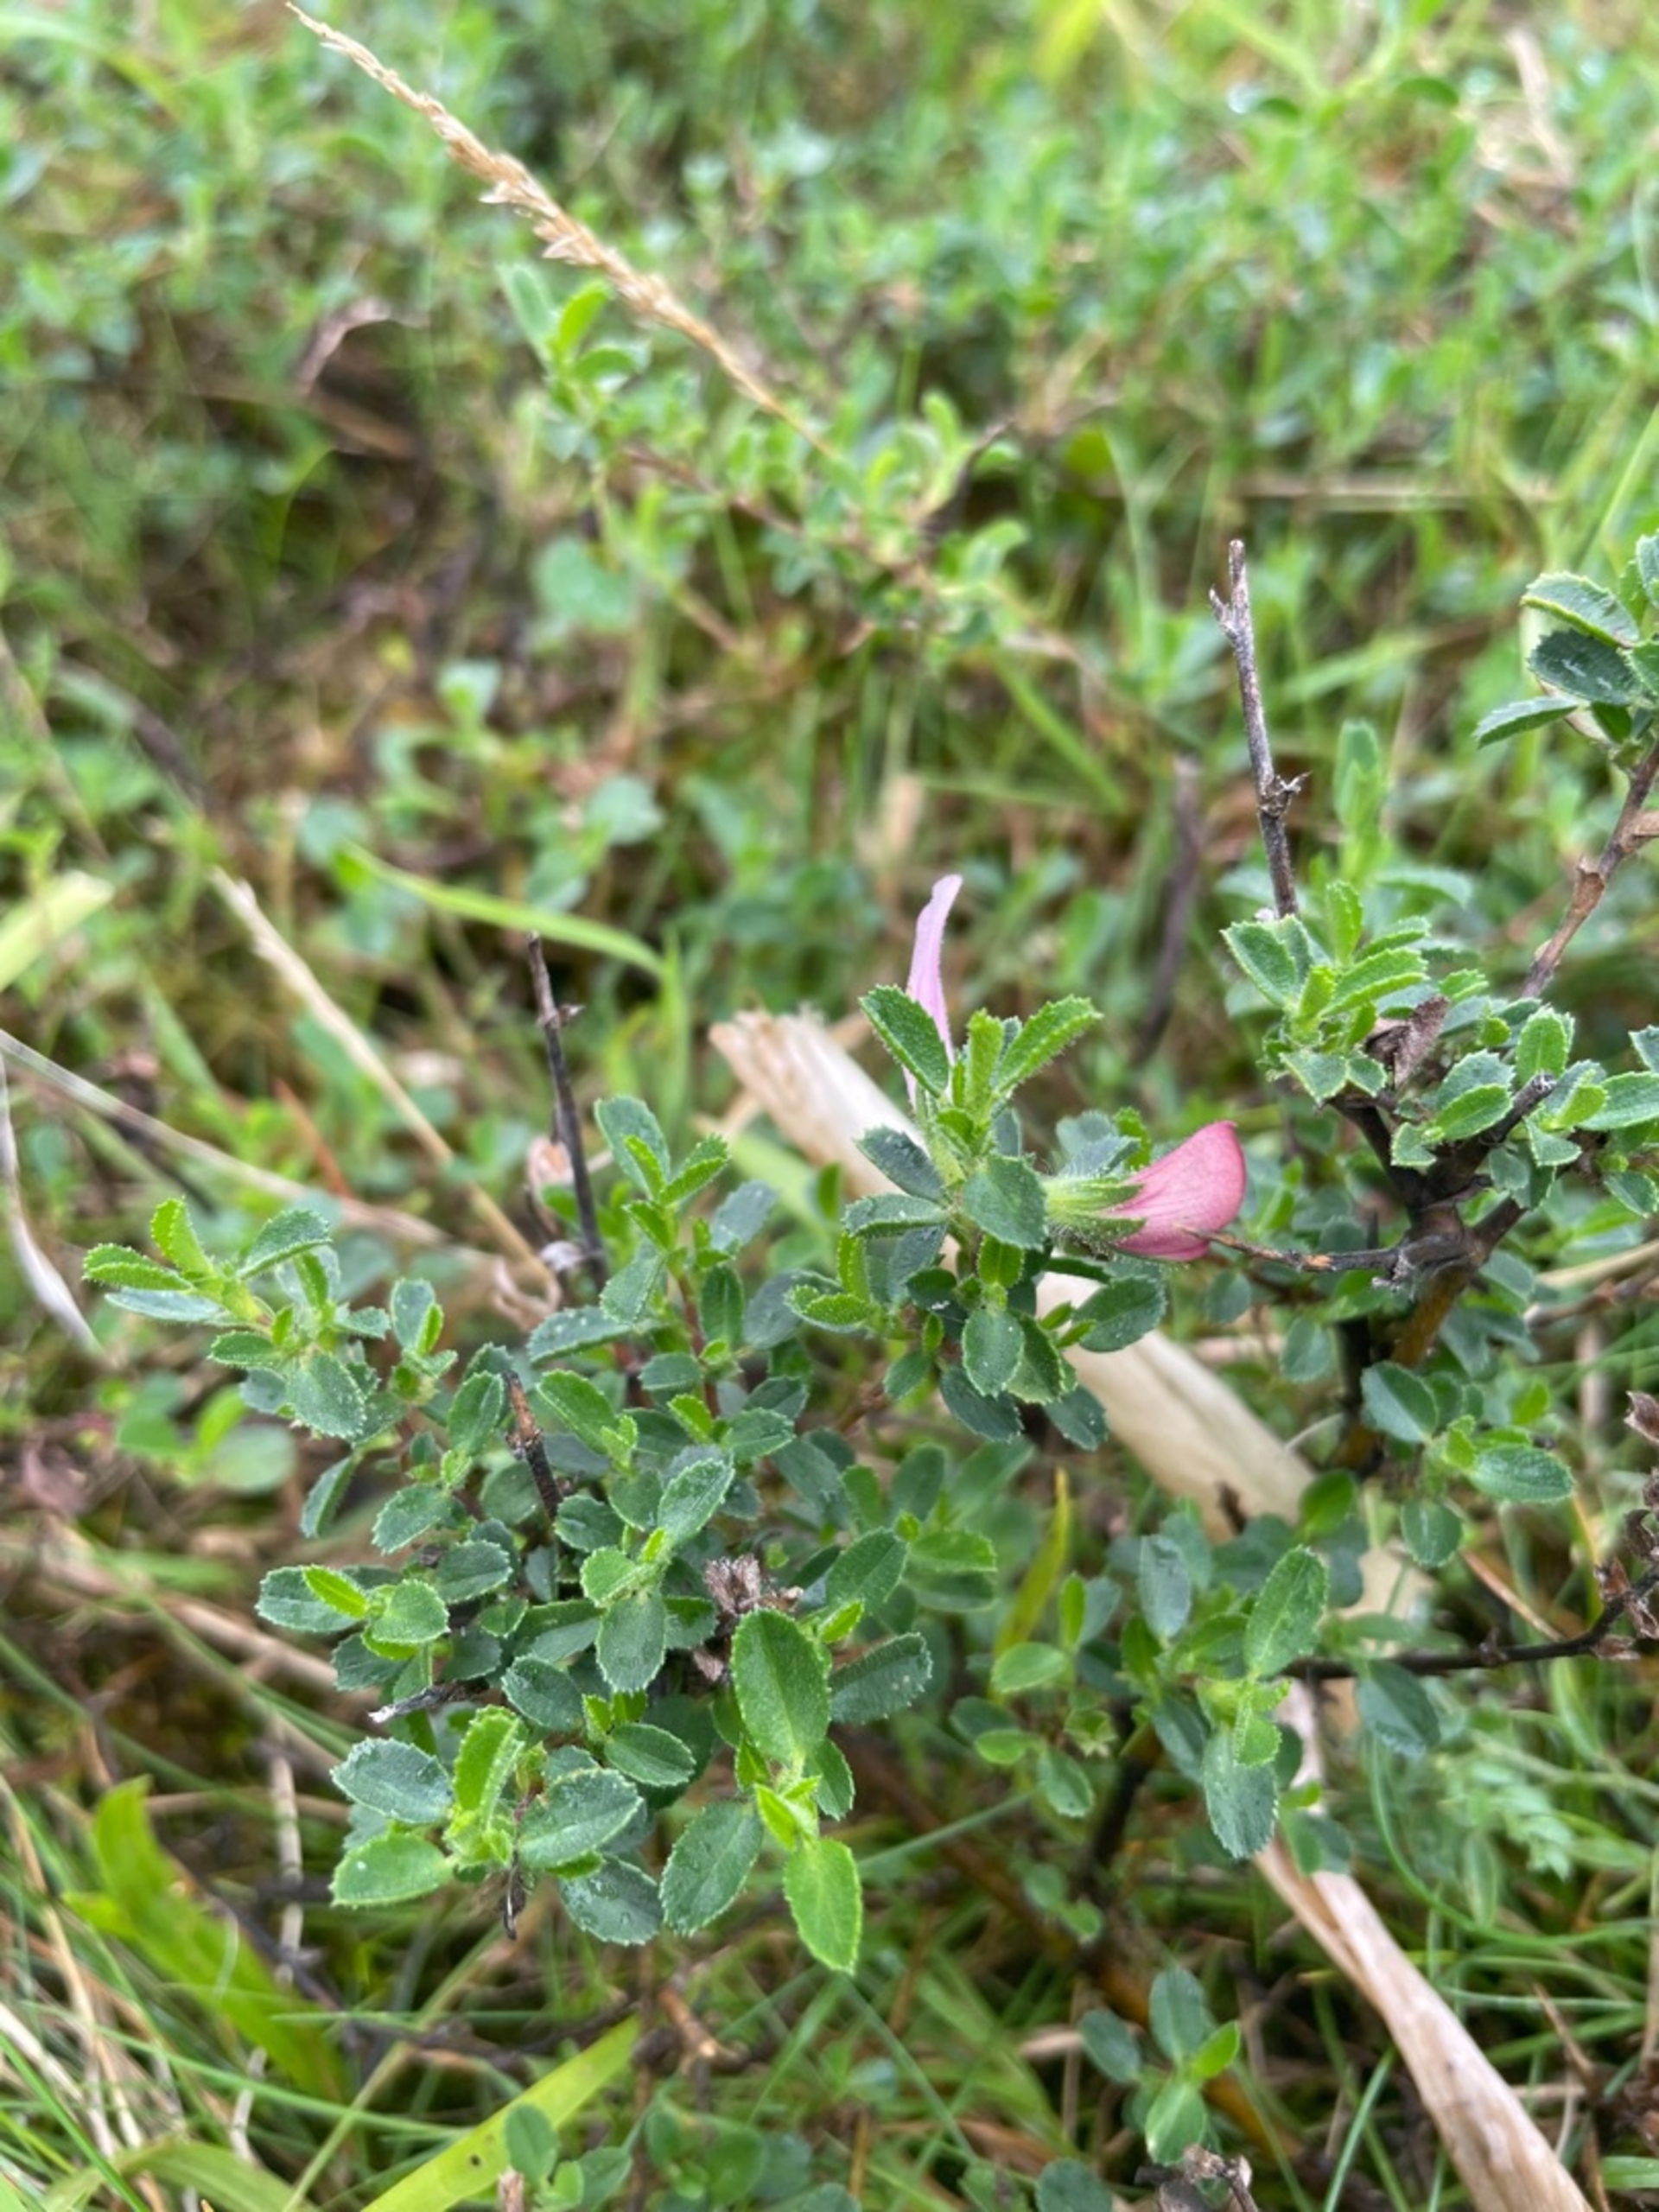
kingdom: Plantae
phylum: Tracheophyta
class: Magnoliopsida
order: Fabales
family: Fabaceae
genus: Ononis
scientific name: Ononis spinosa
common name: Mark-krageklo
